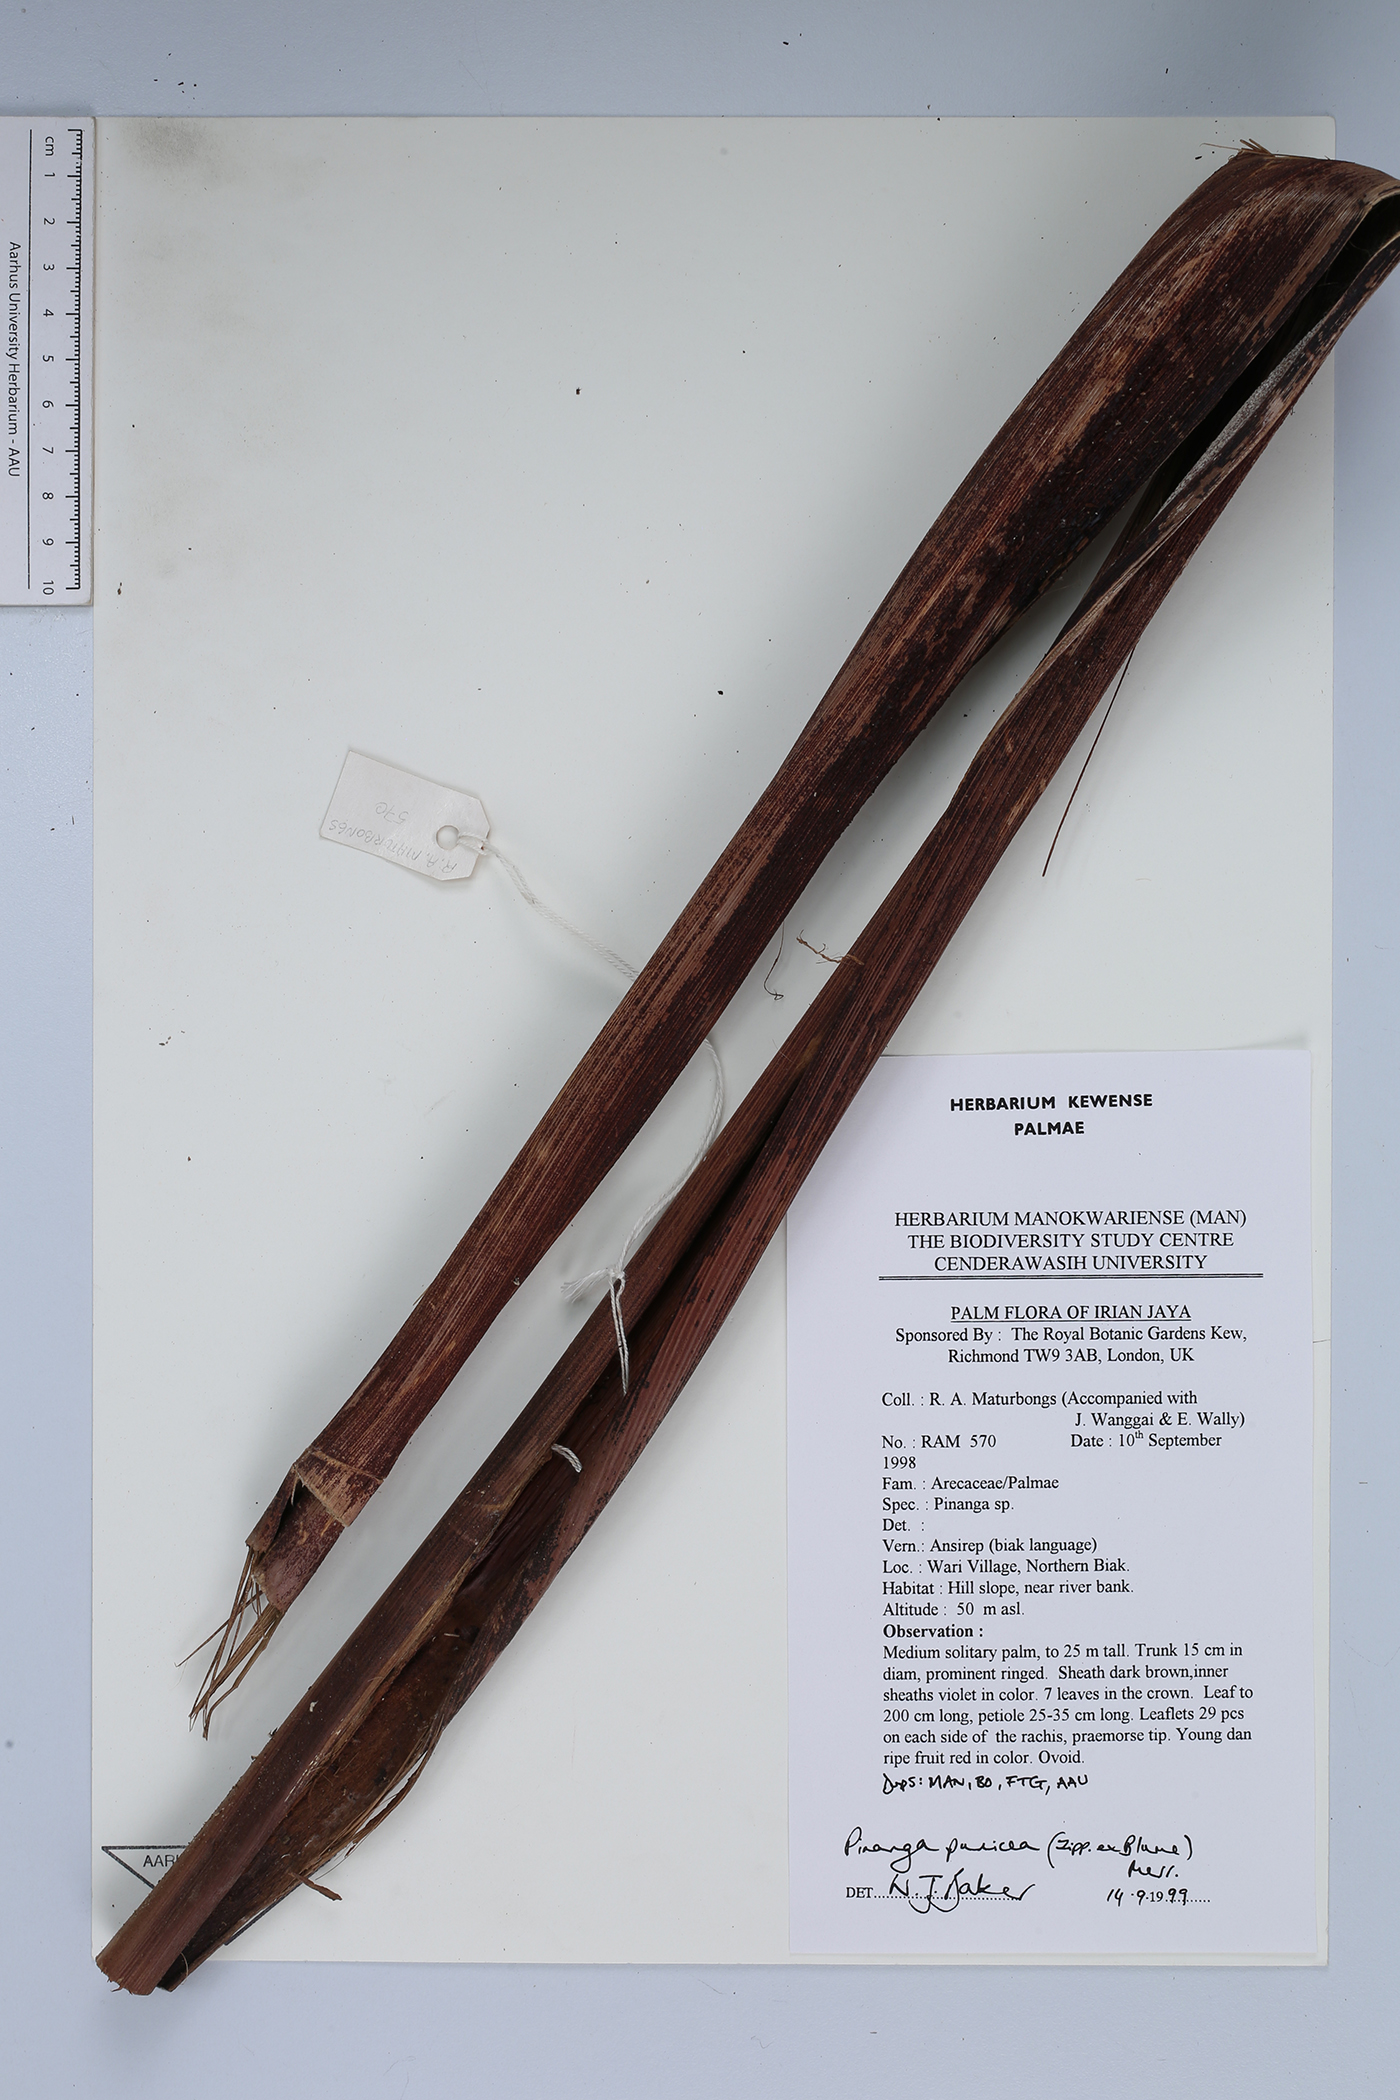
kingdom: Plantae
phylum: Tracheophyta
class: Liliopsida
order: Arecales
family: Arecaceae
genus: Pinanga
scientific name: Pinanga rumphiana
